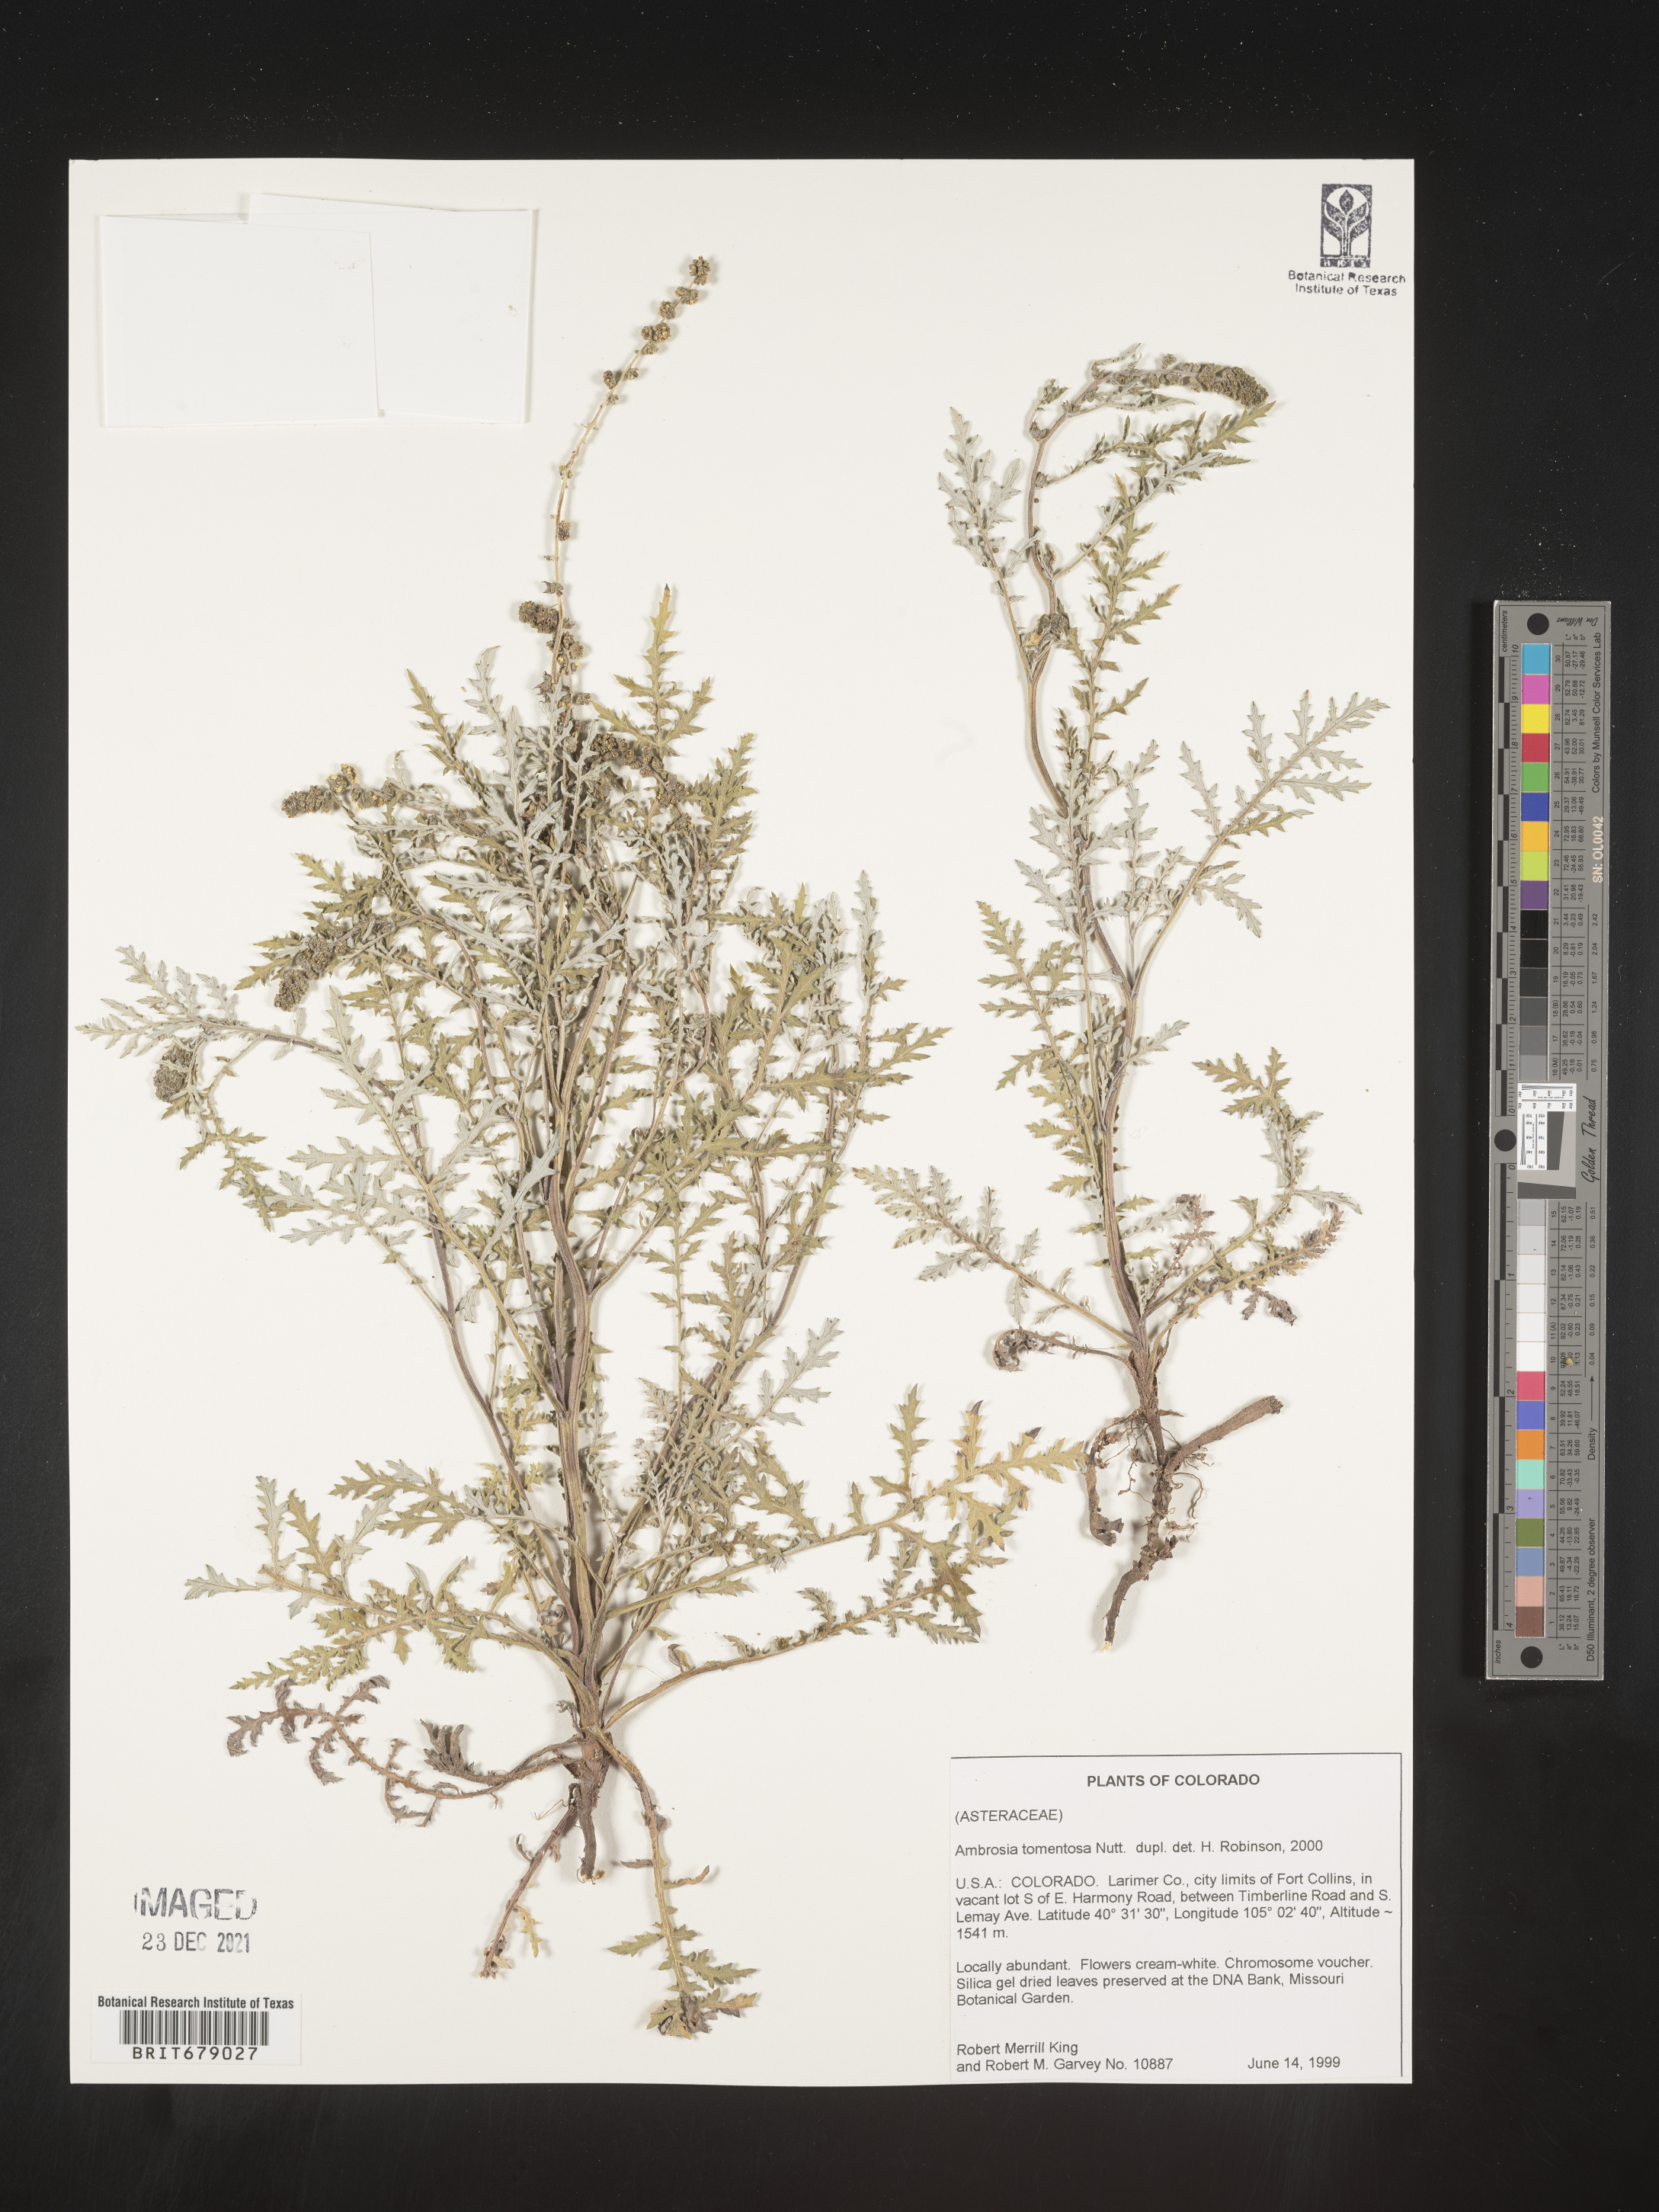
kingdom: Plantae
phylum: Tracheophyta
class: Magnoliopsida
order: Asterales
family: Asteraceae
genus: Ambrosia
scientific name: Ambrosia
